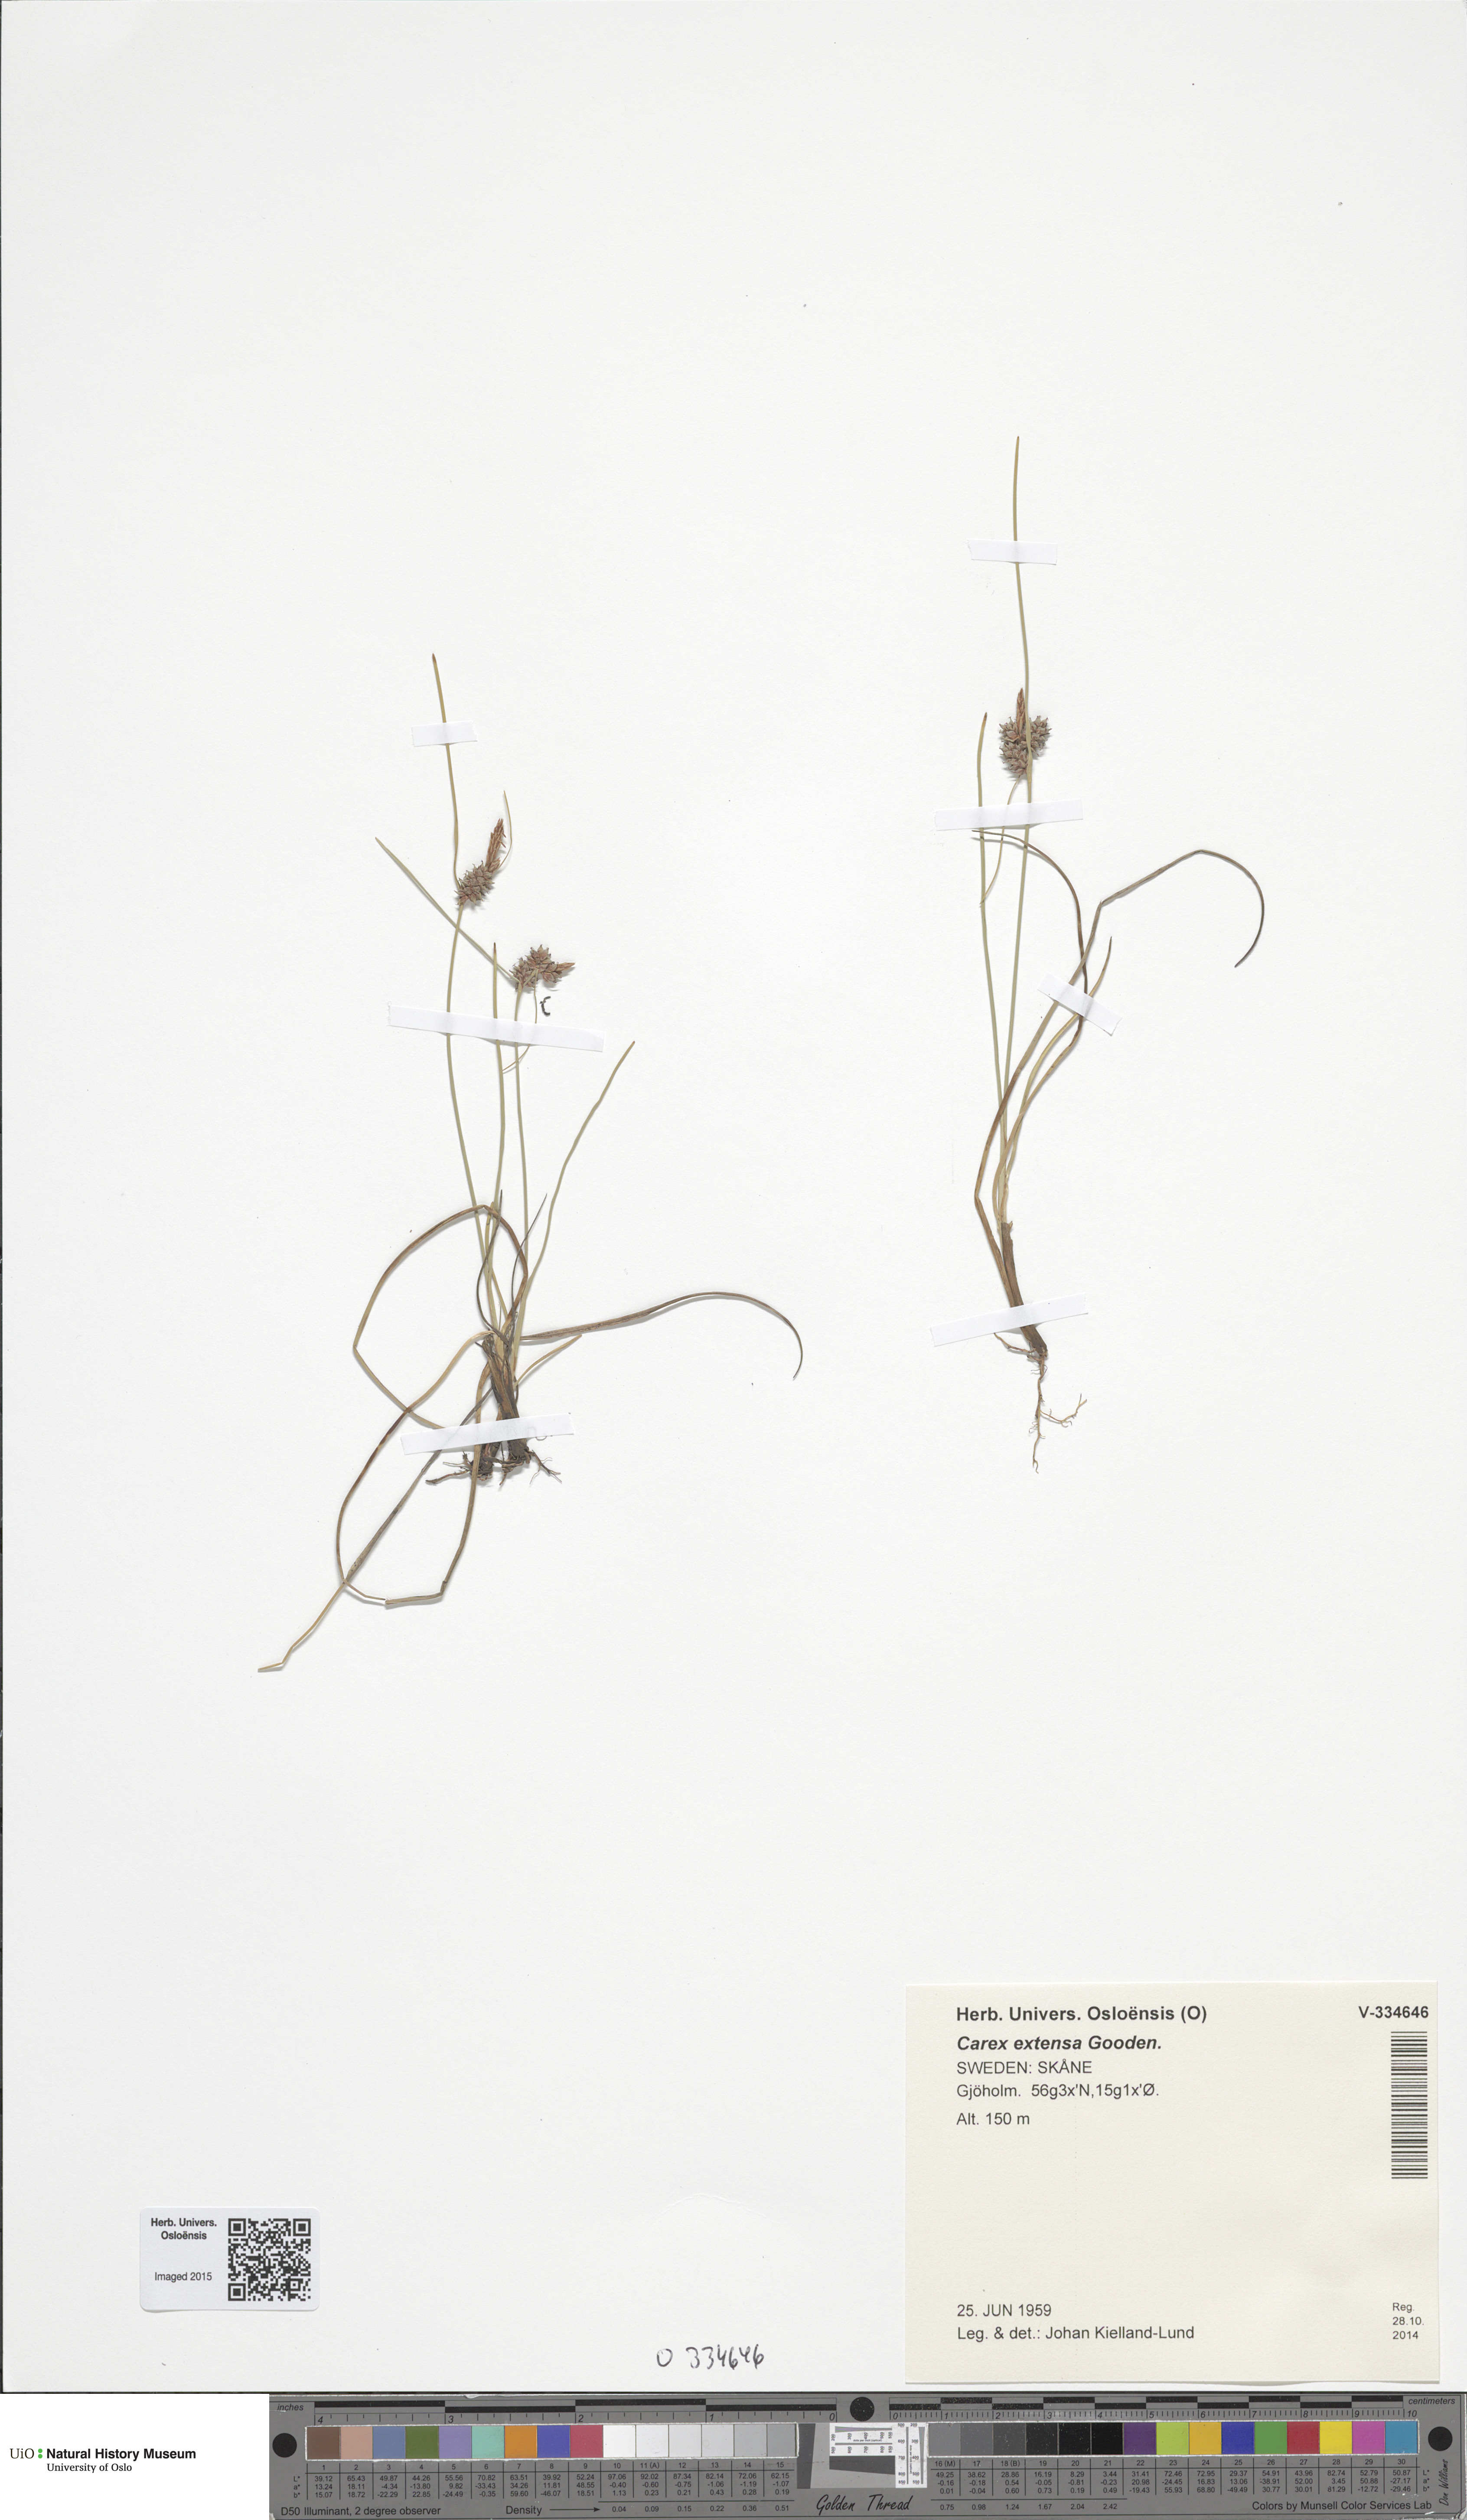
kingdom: Plantae
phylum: Tracheophyta
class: Liliopsida
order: Poales
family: Cyperaceae
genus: Carex
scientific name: Carex extensa
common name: Long-bracted sedge
